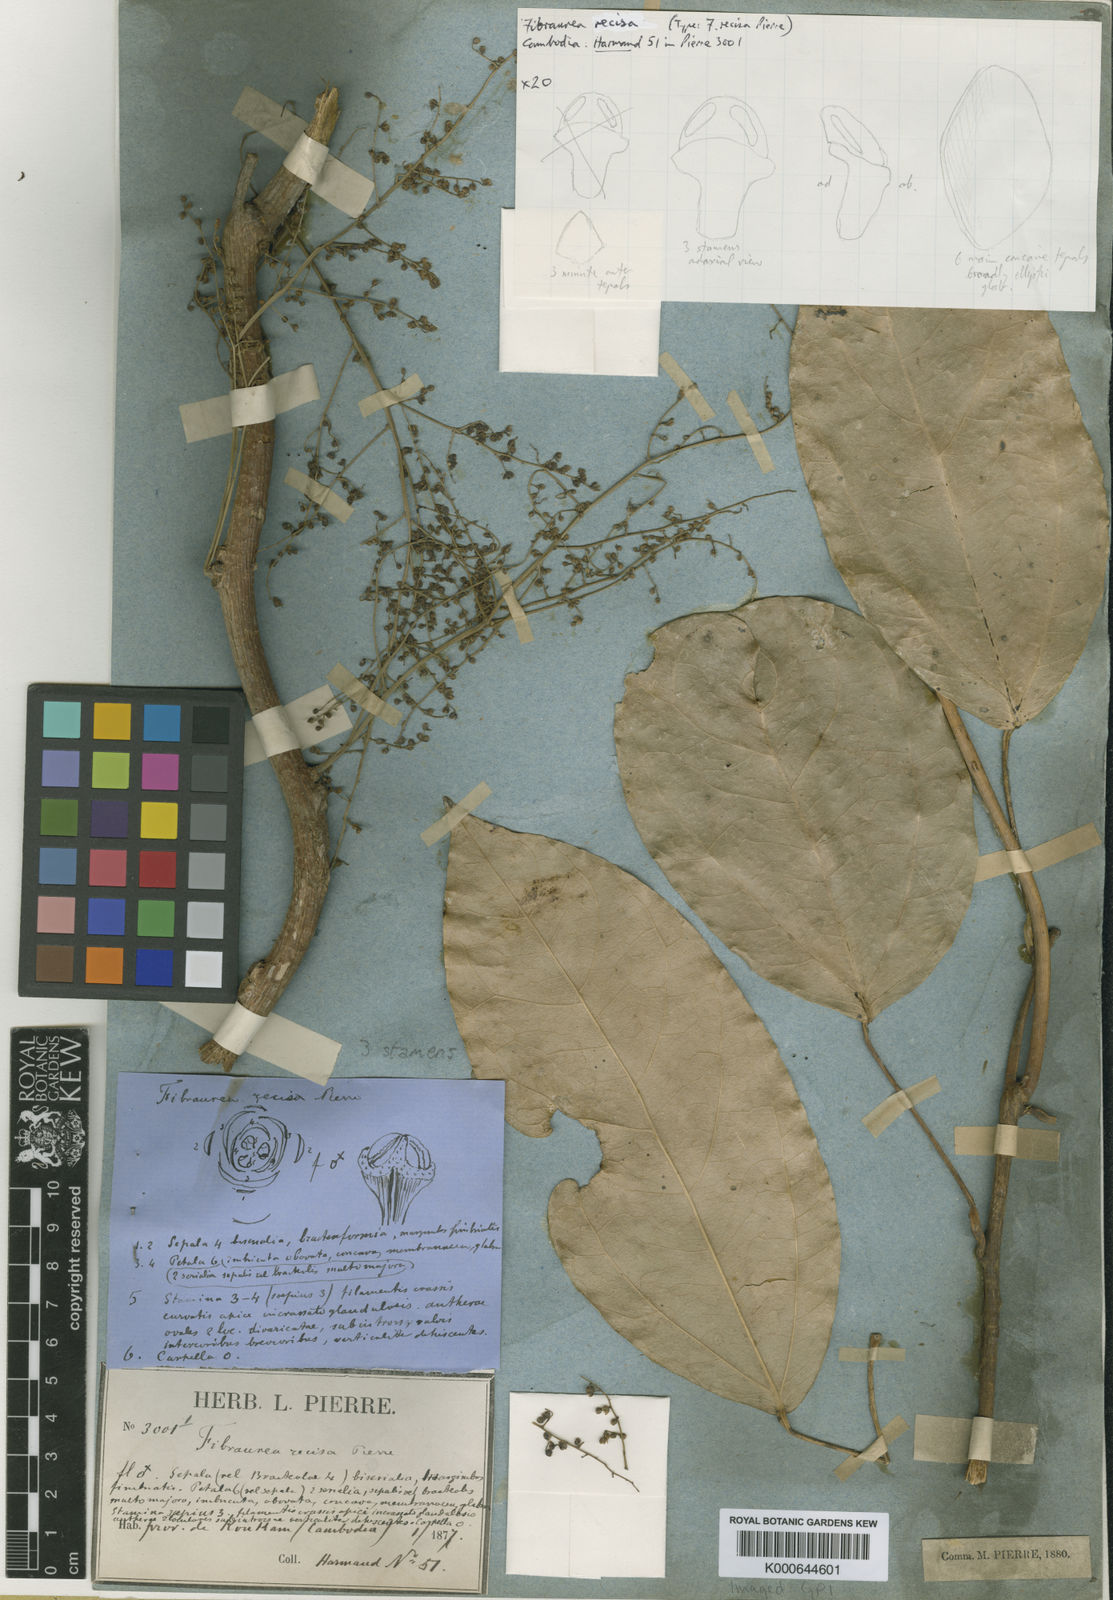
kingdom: Plantae
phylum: Tracheophyta
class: Magnoliopsida
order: Ranunculales
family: Menispermaceae
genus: Fibraurea
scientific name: Fibraurea recisa
